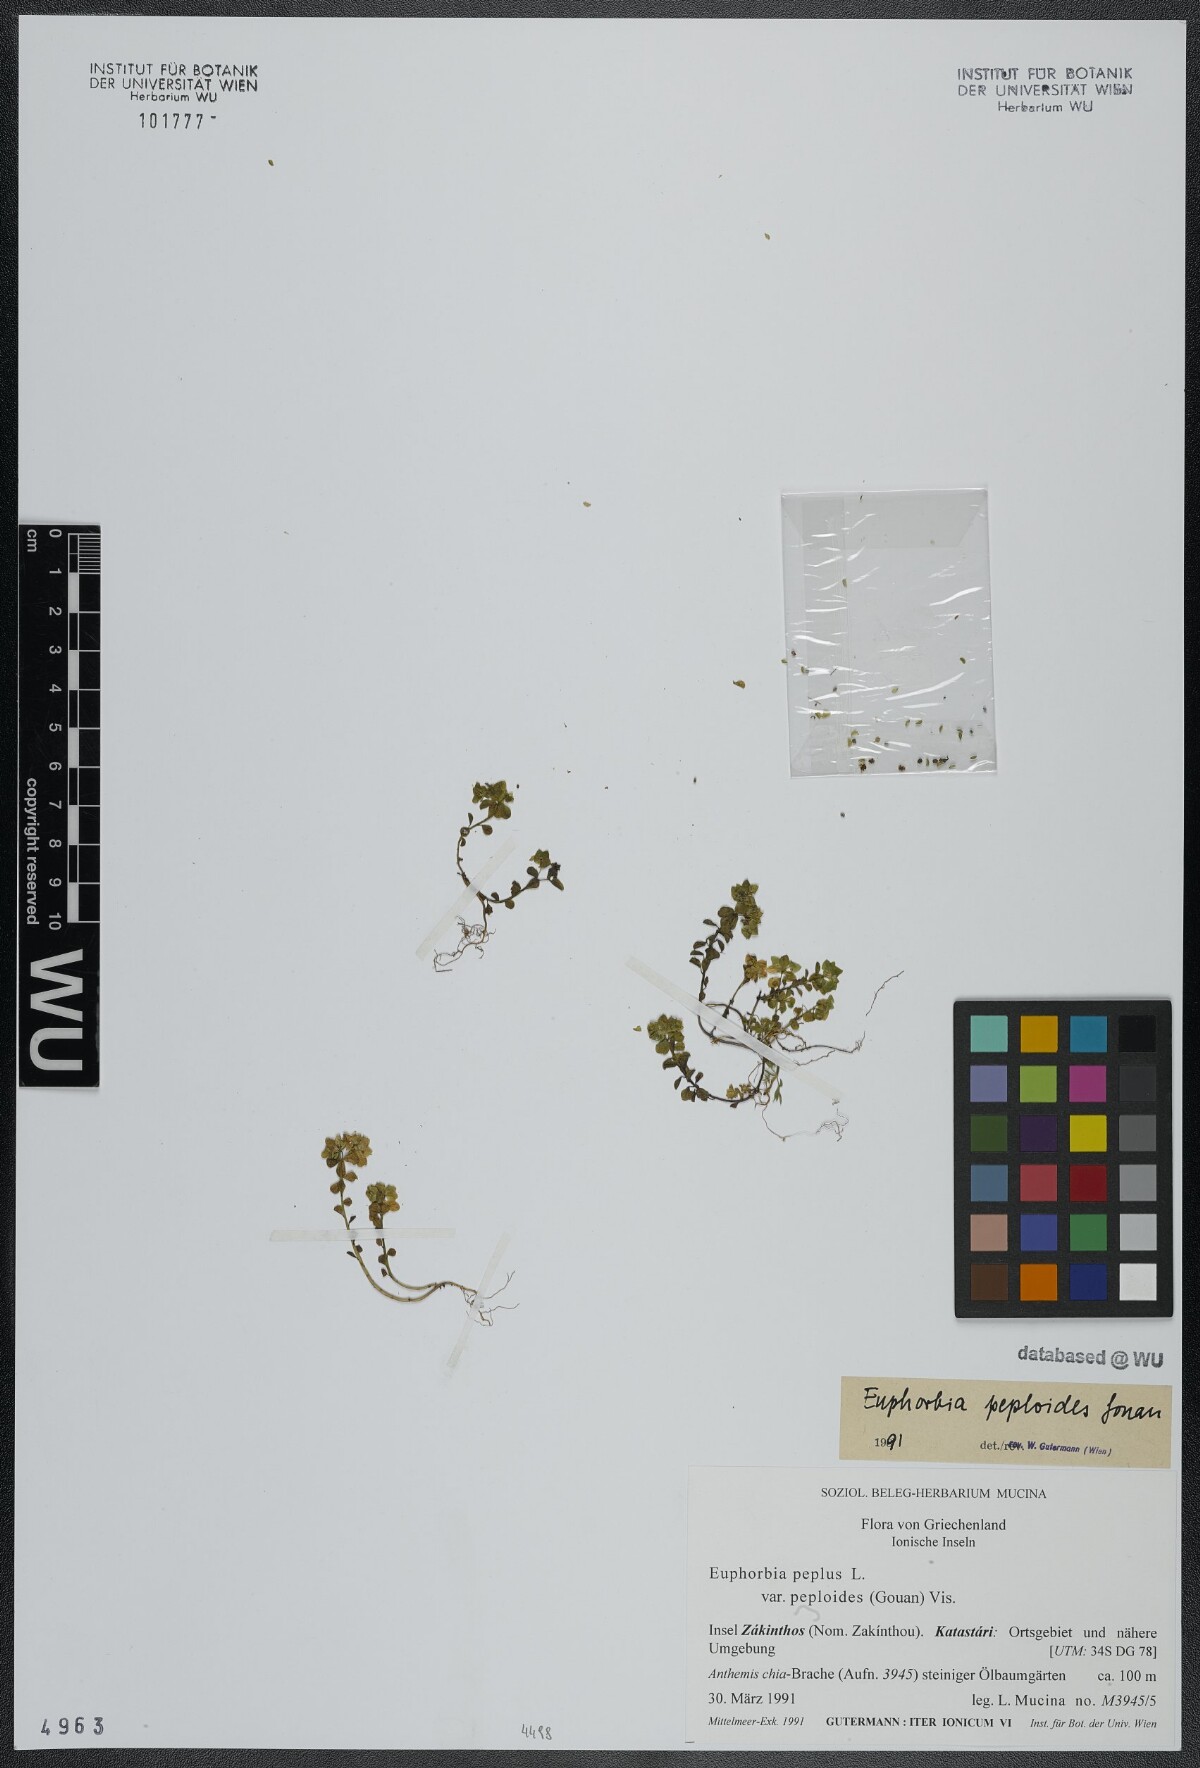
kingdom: Plantae
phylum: Tracheophyta
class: Magnoliopsida
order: Malpighiales
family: Euphorbiaceae
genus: Euphorbia
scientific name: Euphorbia peplus
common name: Petty spurge
